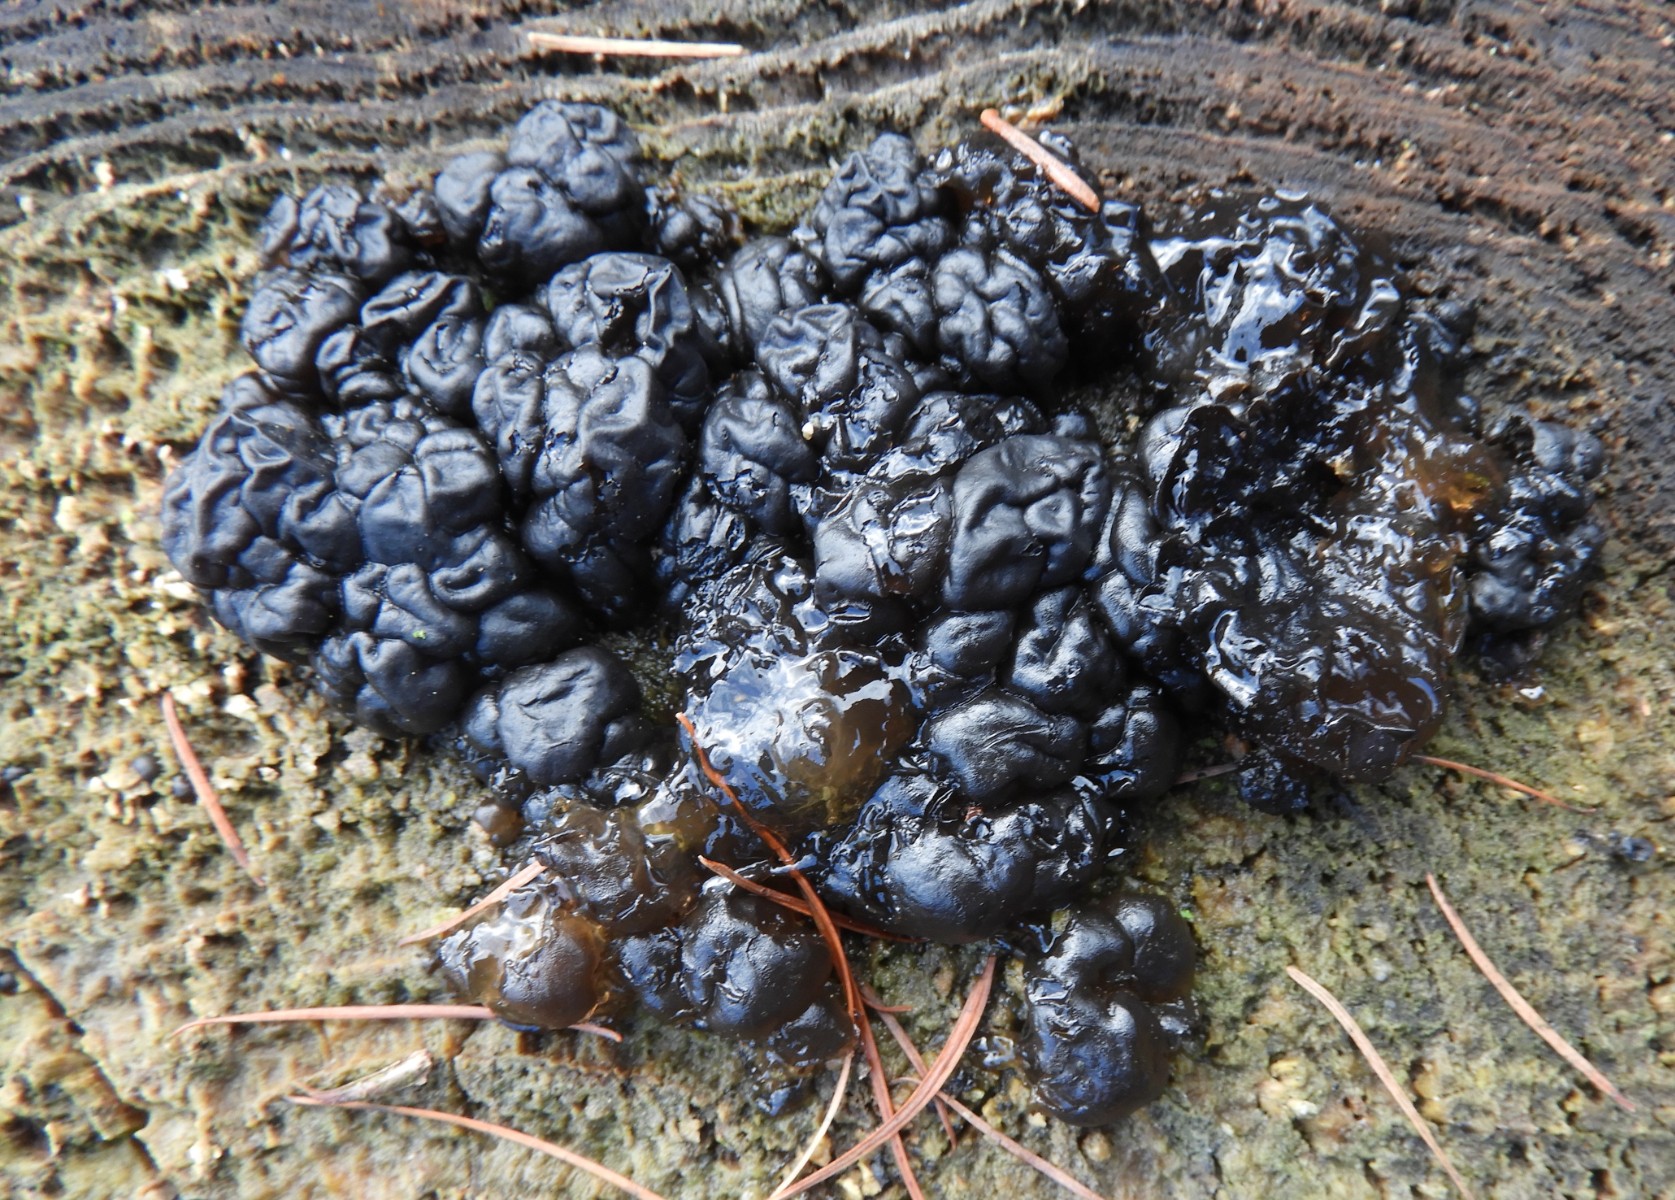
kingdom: Fungi
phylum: Basidiomycota
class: Agaricomycetes
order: Auriculariales
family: Auriculariaceae
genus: Exidia
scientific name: Exidia nigricans
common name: almindelig bævretop
